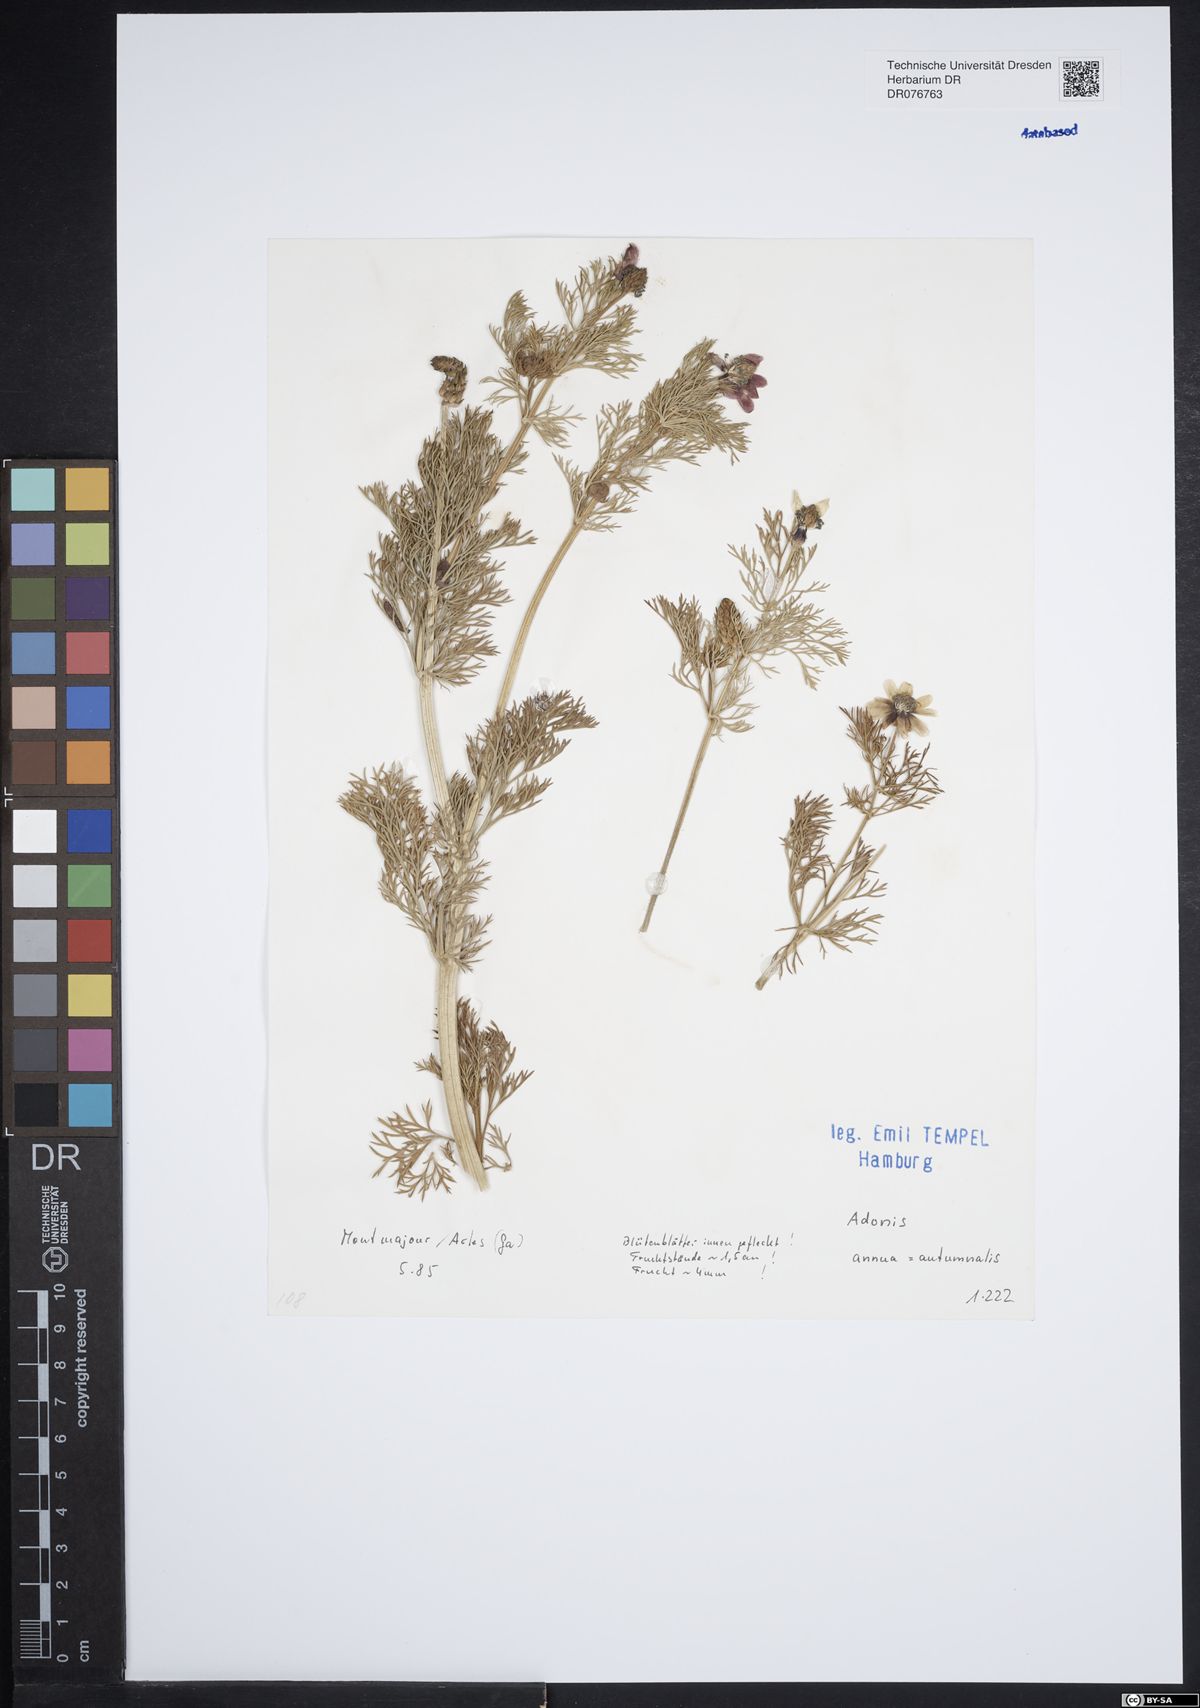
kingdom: Plantae
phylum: Tracheophyta
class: Magnoliopsida
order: Ranunculales
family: Ranunculaceae
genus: Adonis
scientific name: Adonis
